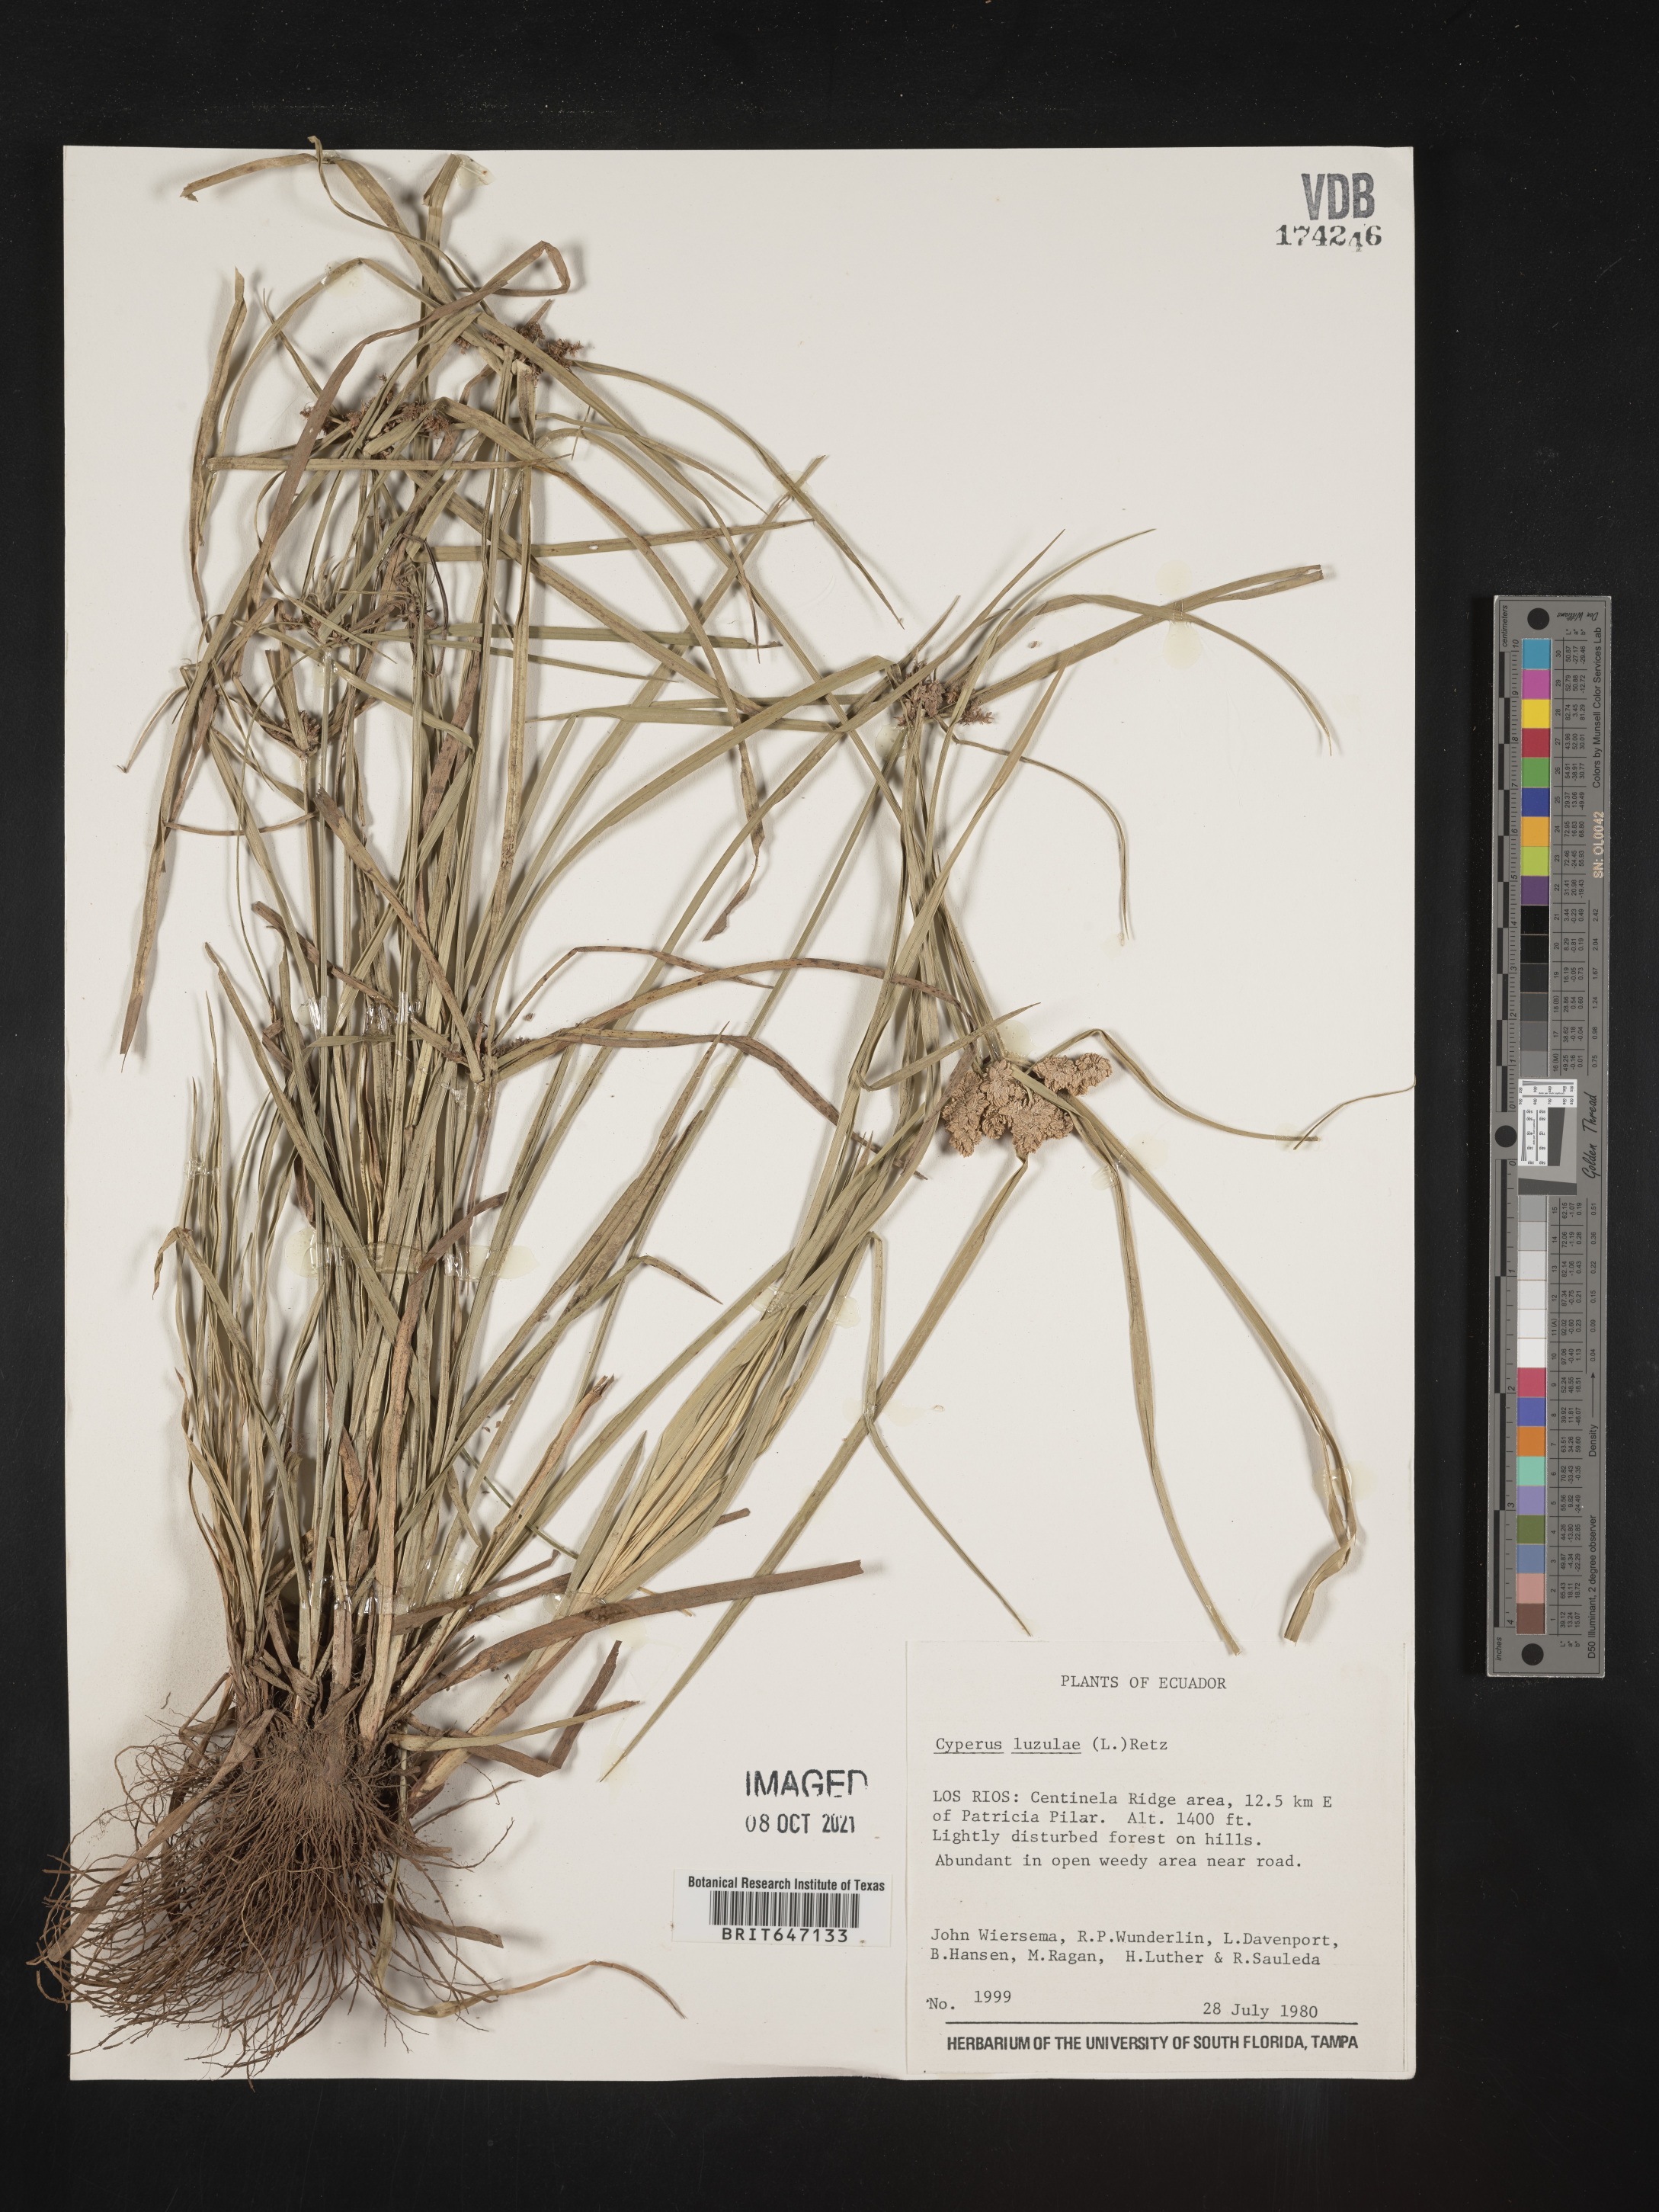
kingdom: Plantae
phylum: Tracheophyta
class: Liliopsida
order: Poales
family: Cyperaceae
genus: Cyperus
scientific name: Cyperus luzulae
